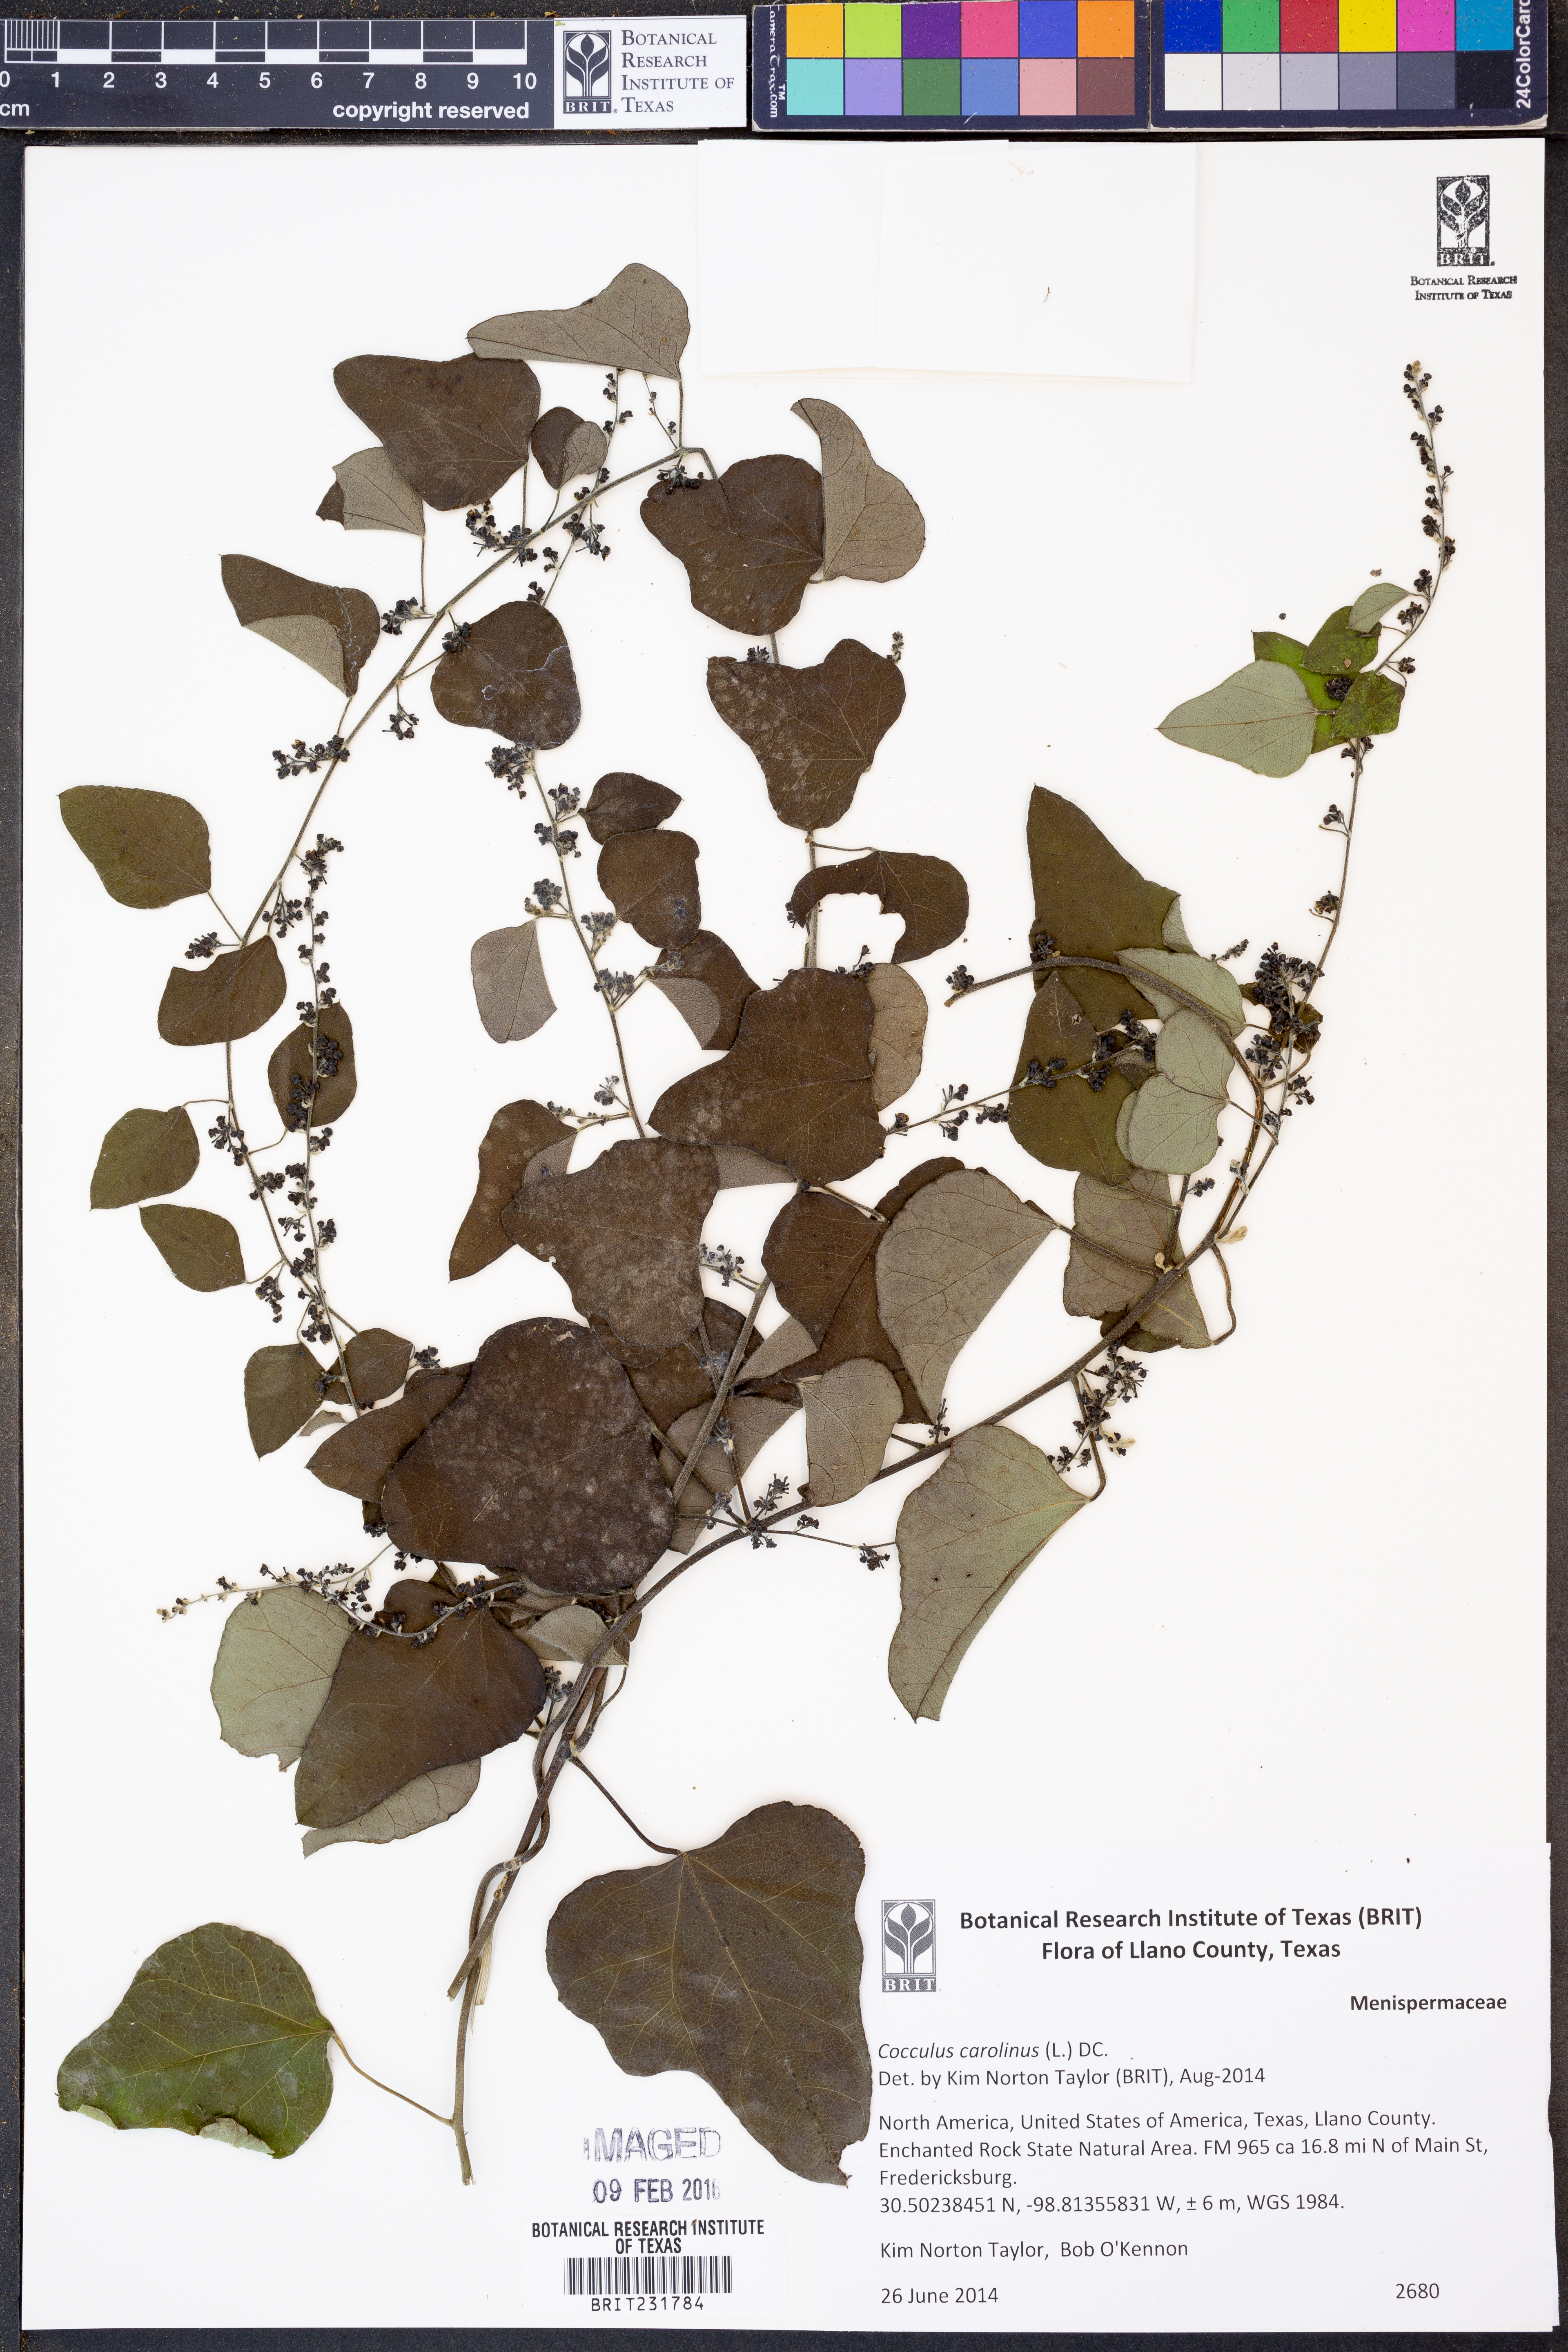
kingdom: Plantae
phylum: Tracheophyta
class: Magnoliopsida
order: Ranunculales
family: Menispermaceae
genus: Cocculus
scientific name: Cocculus carolinus
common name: Carolina moonseed
